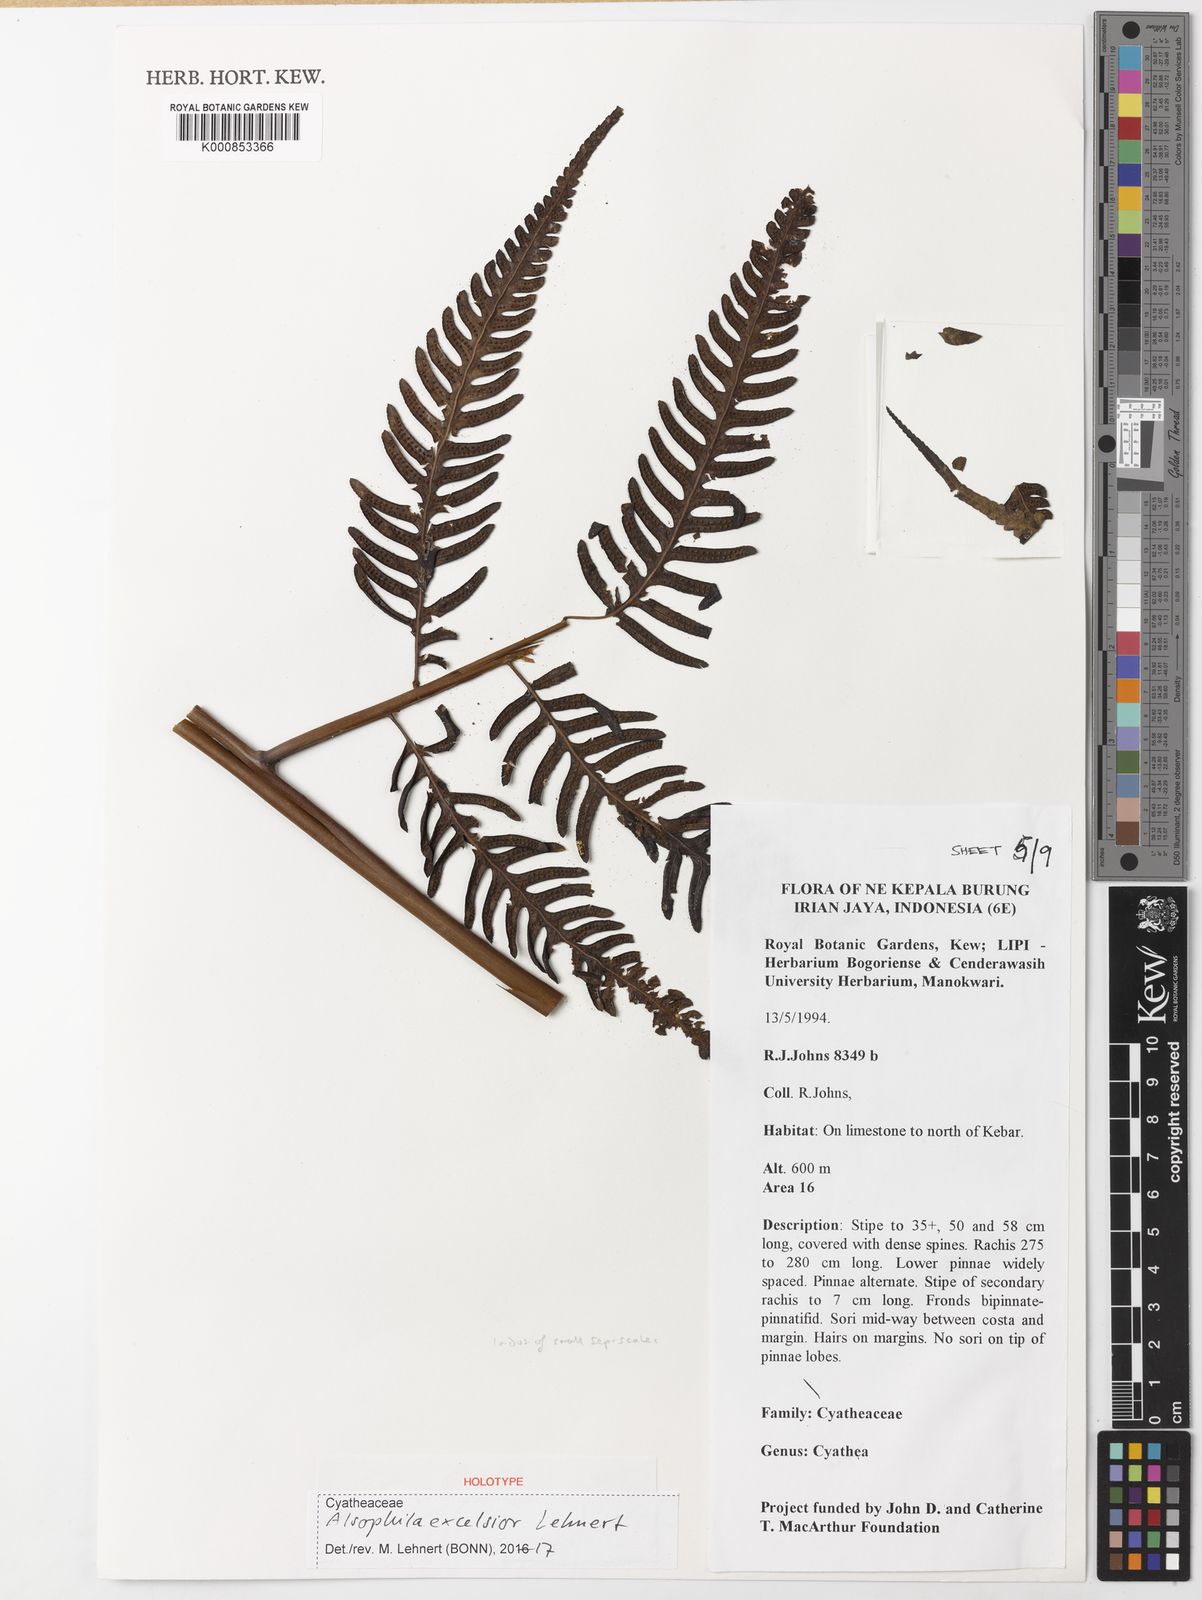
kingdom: Plantae
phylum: Tracheophyta
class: Polypodiopsida
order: Cyatheales
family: Cyatheaceae
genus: Alsophila
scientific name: Alsophila excelsior
